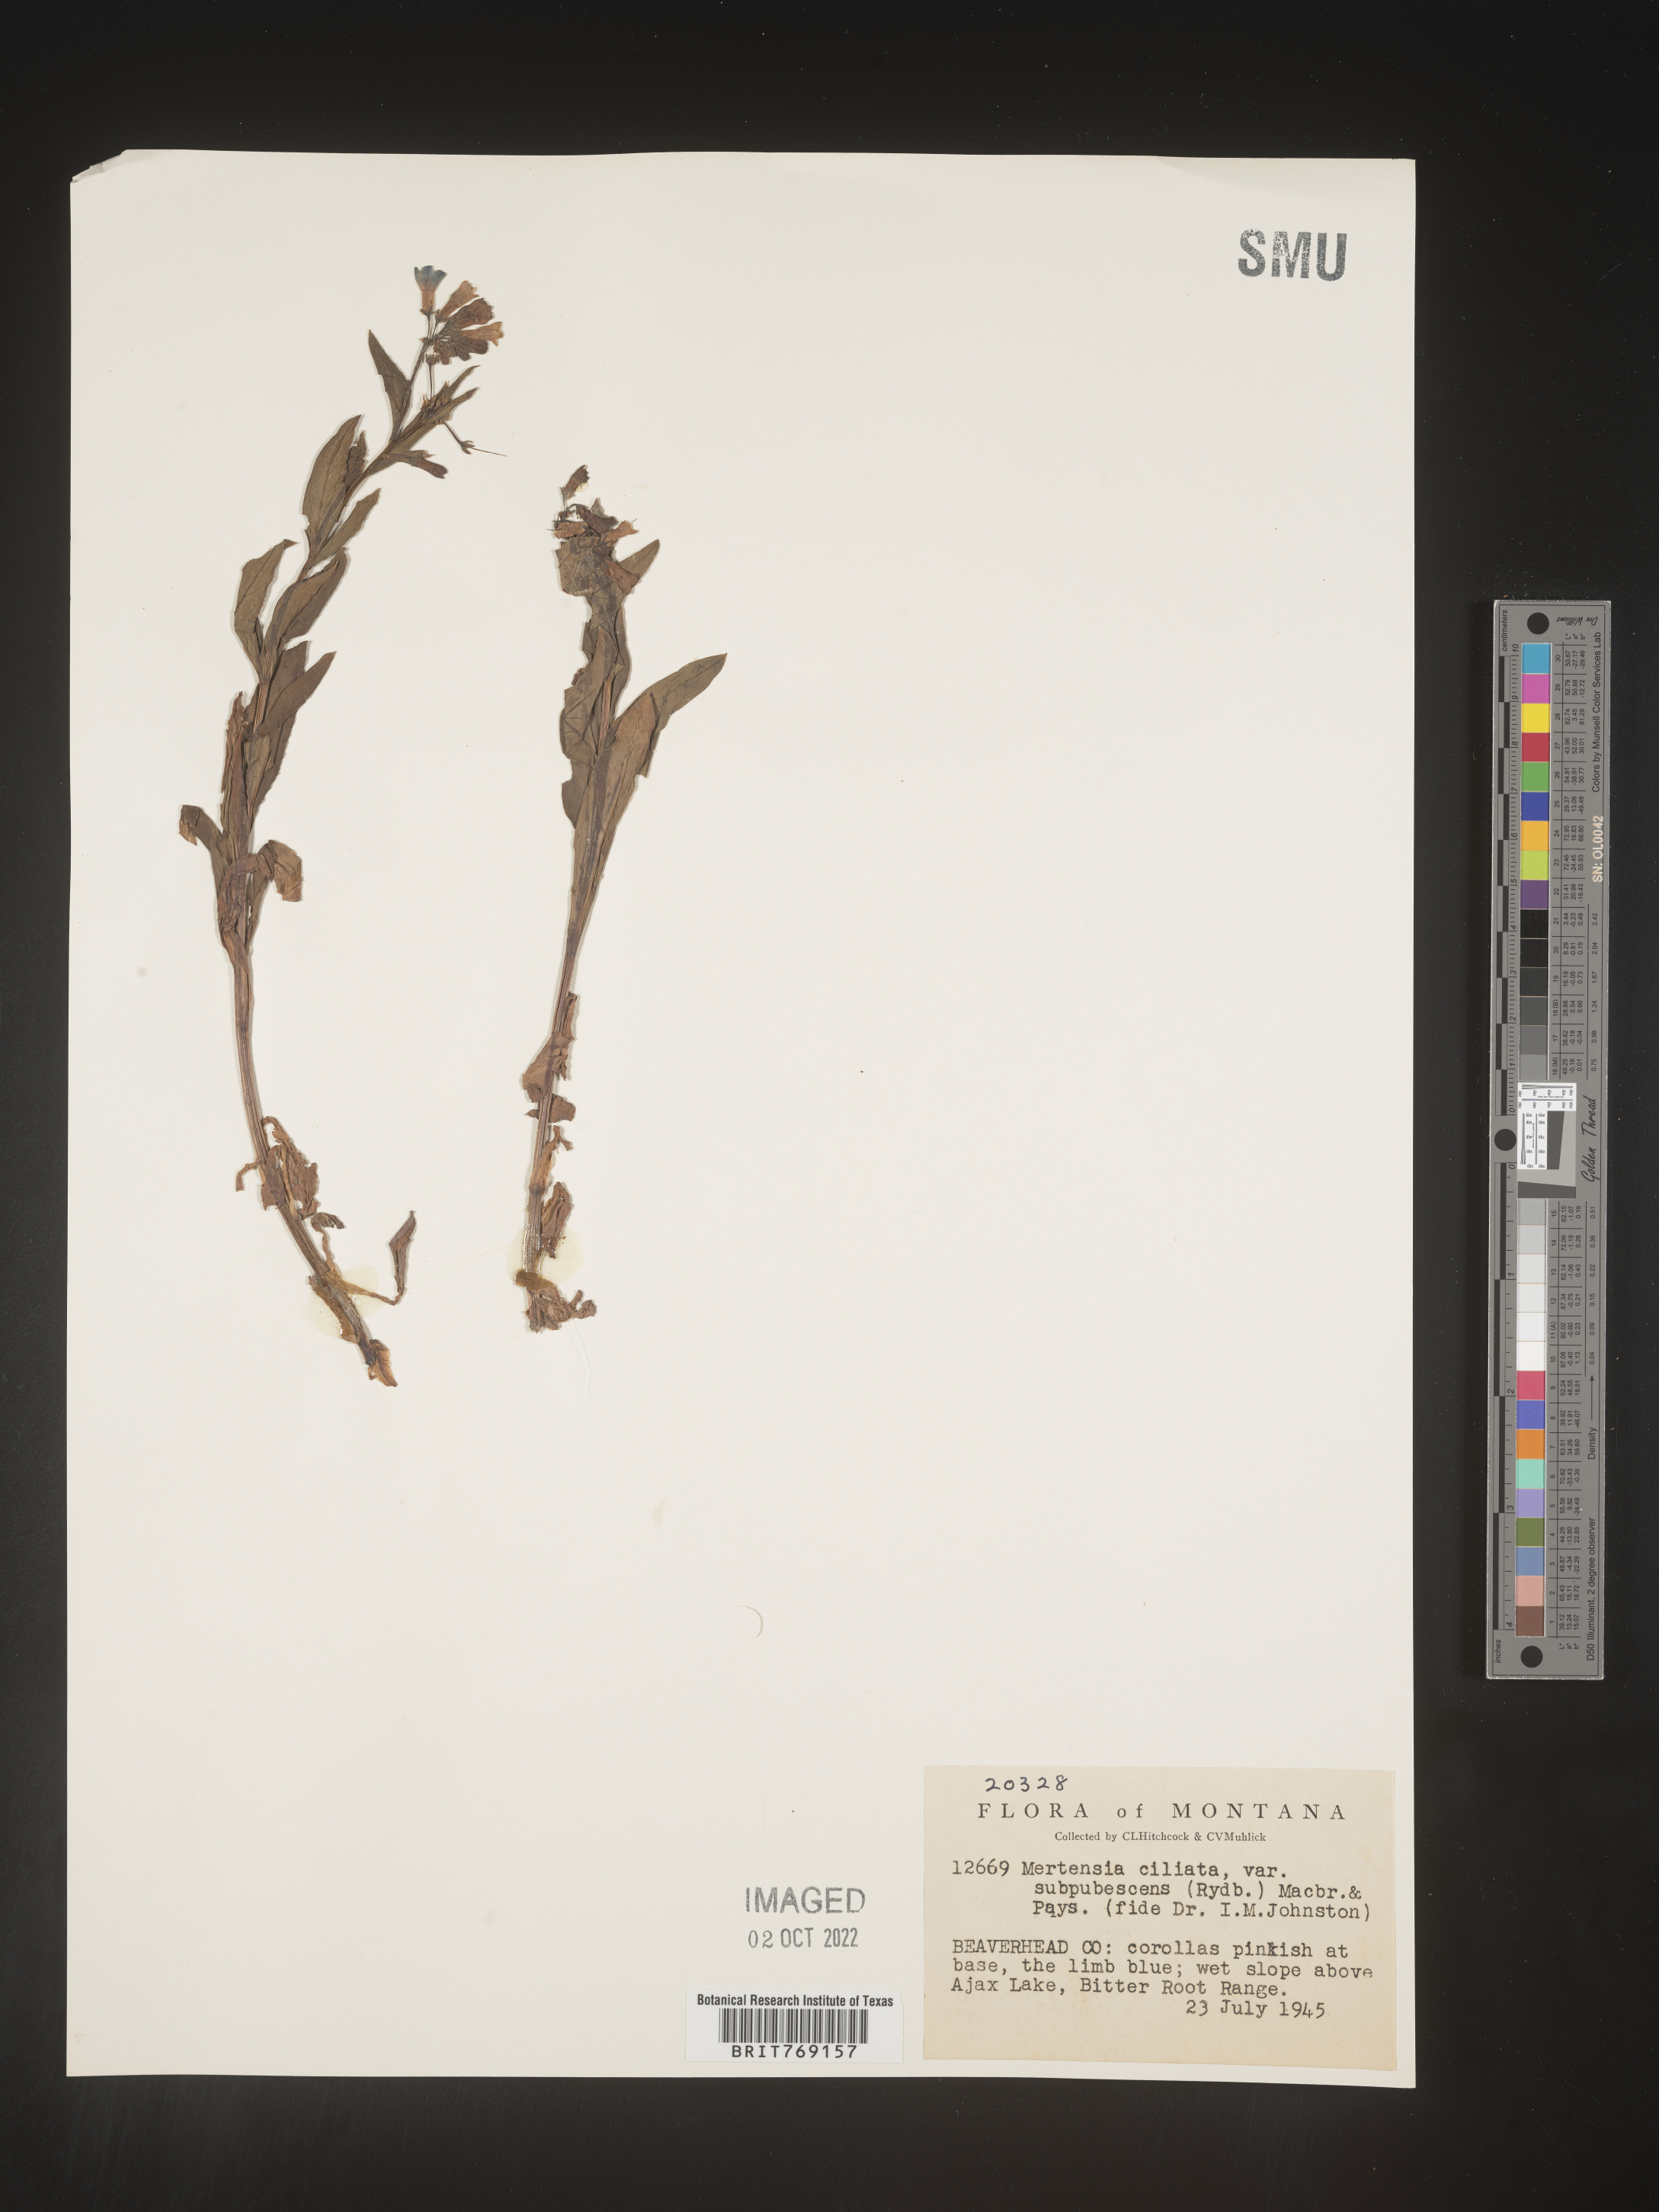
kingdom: Plantae
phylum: Tracheophyta
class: Magnoliopsida
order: Boraginales
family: Boraginaceae
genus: Mertensia
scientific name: Mertensia
